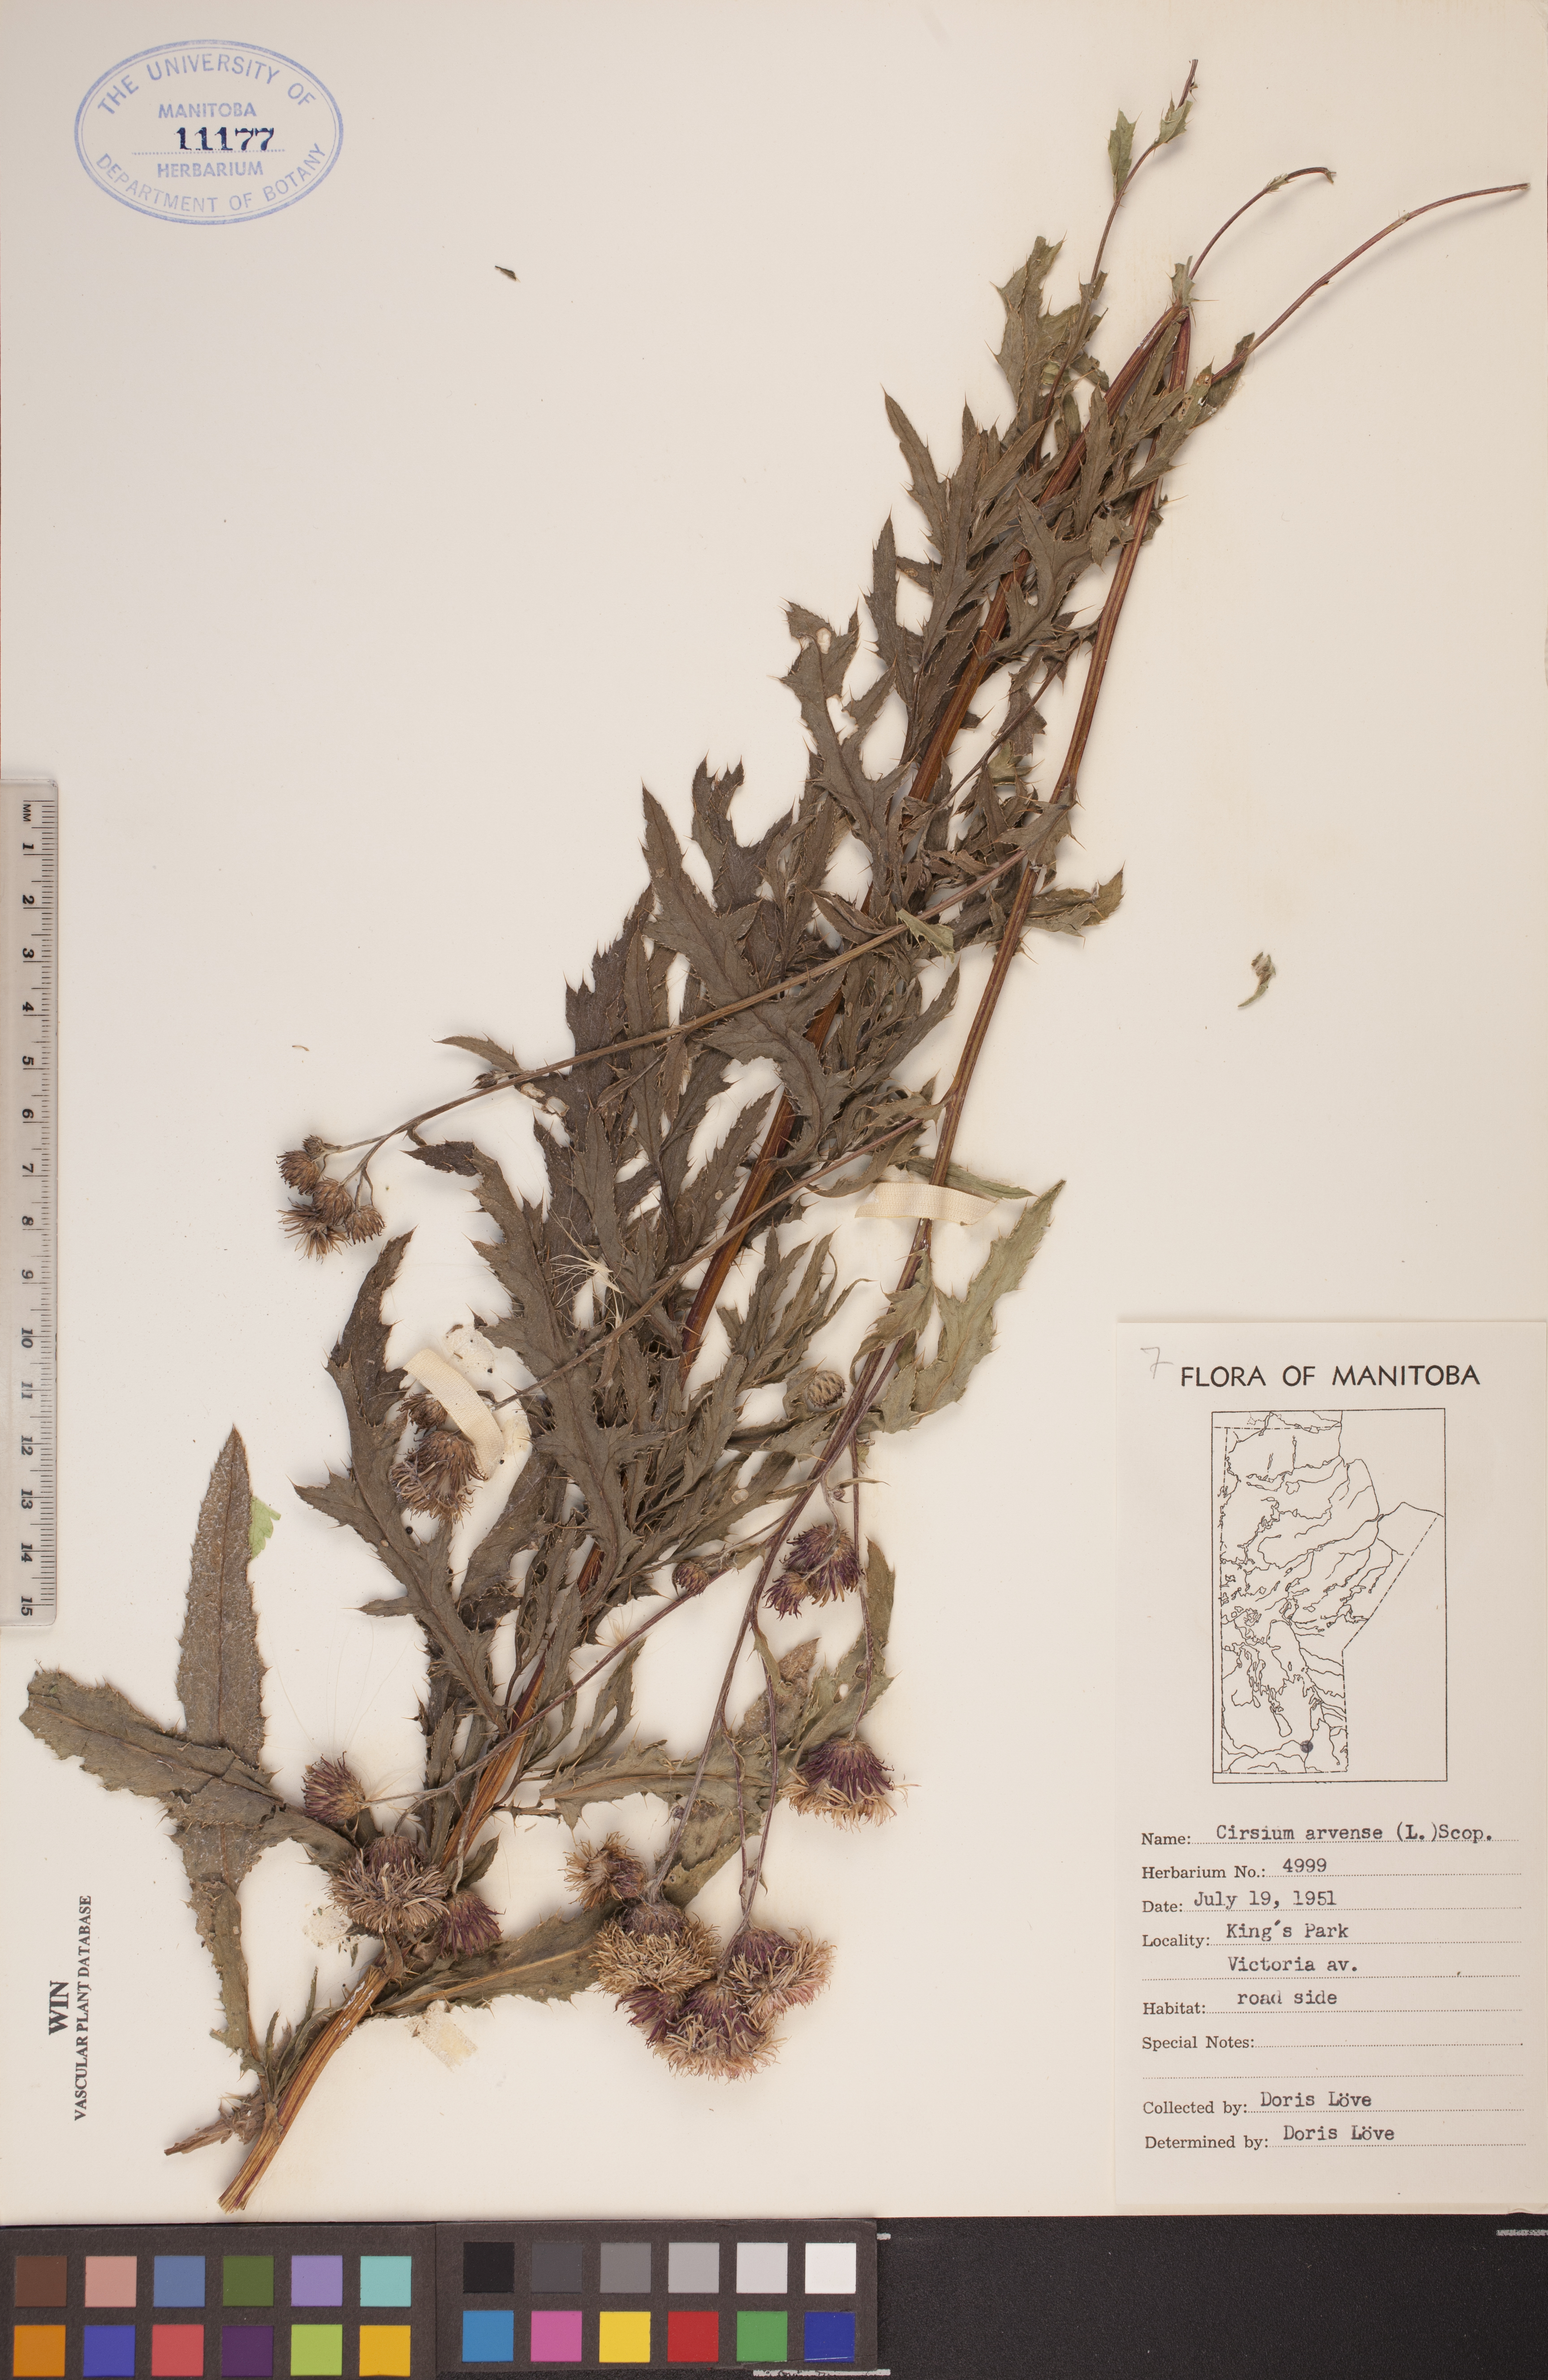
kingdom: Plantae
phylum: Tracheophyta
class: Magnoliopsida
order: Asterales
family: Asteraceae
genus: Cirsium
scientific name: Cirsium arvense
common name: Creeping thistle
